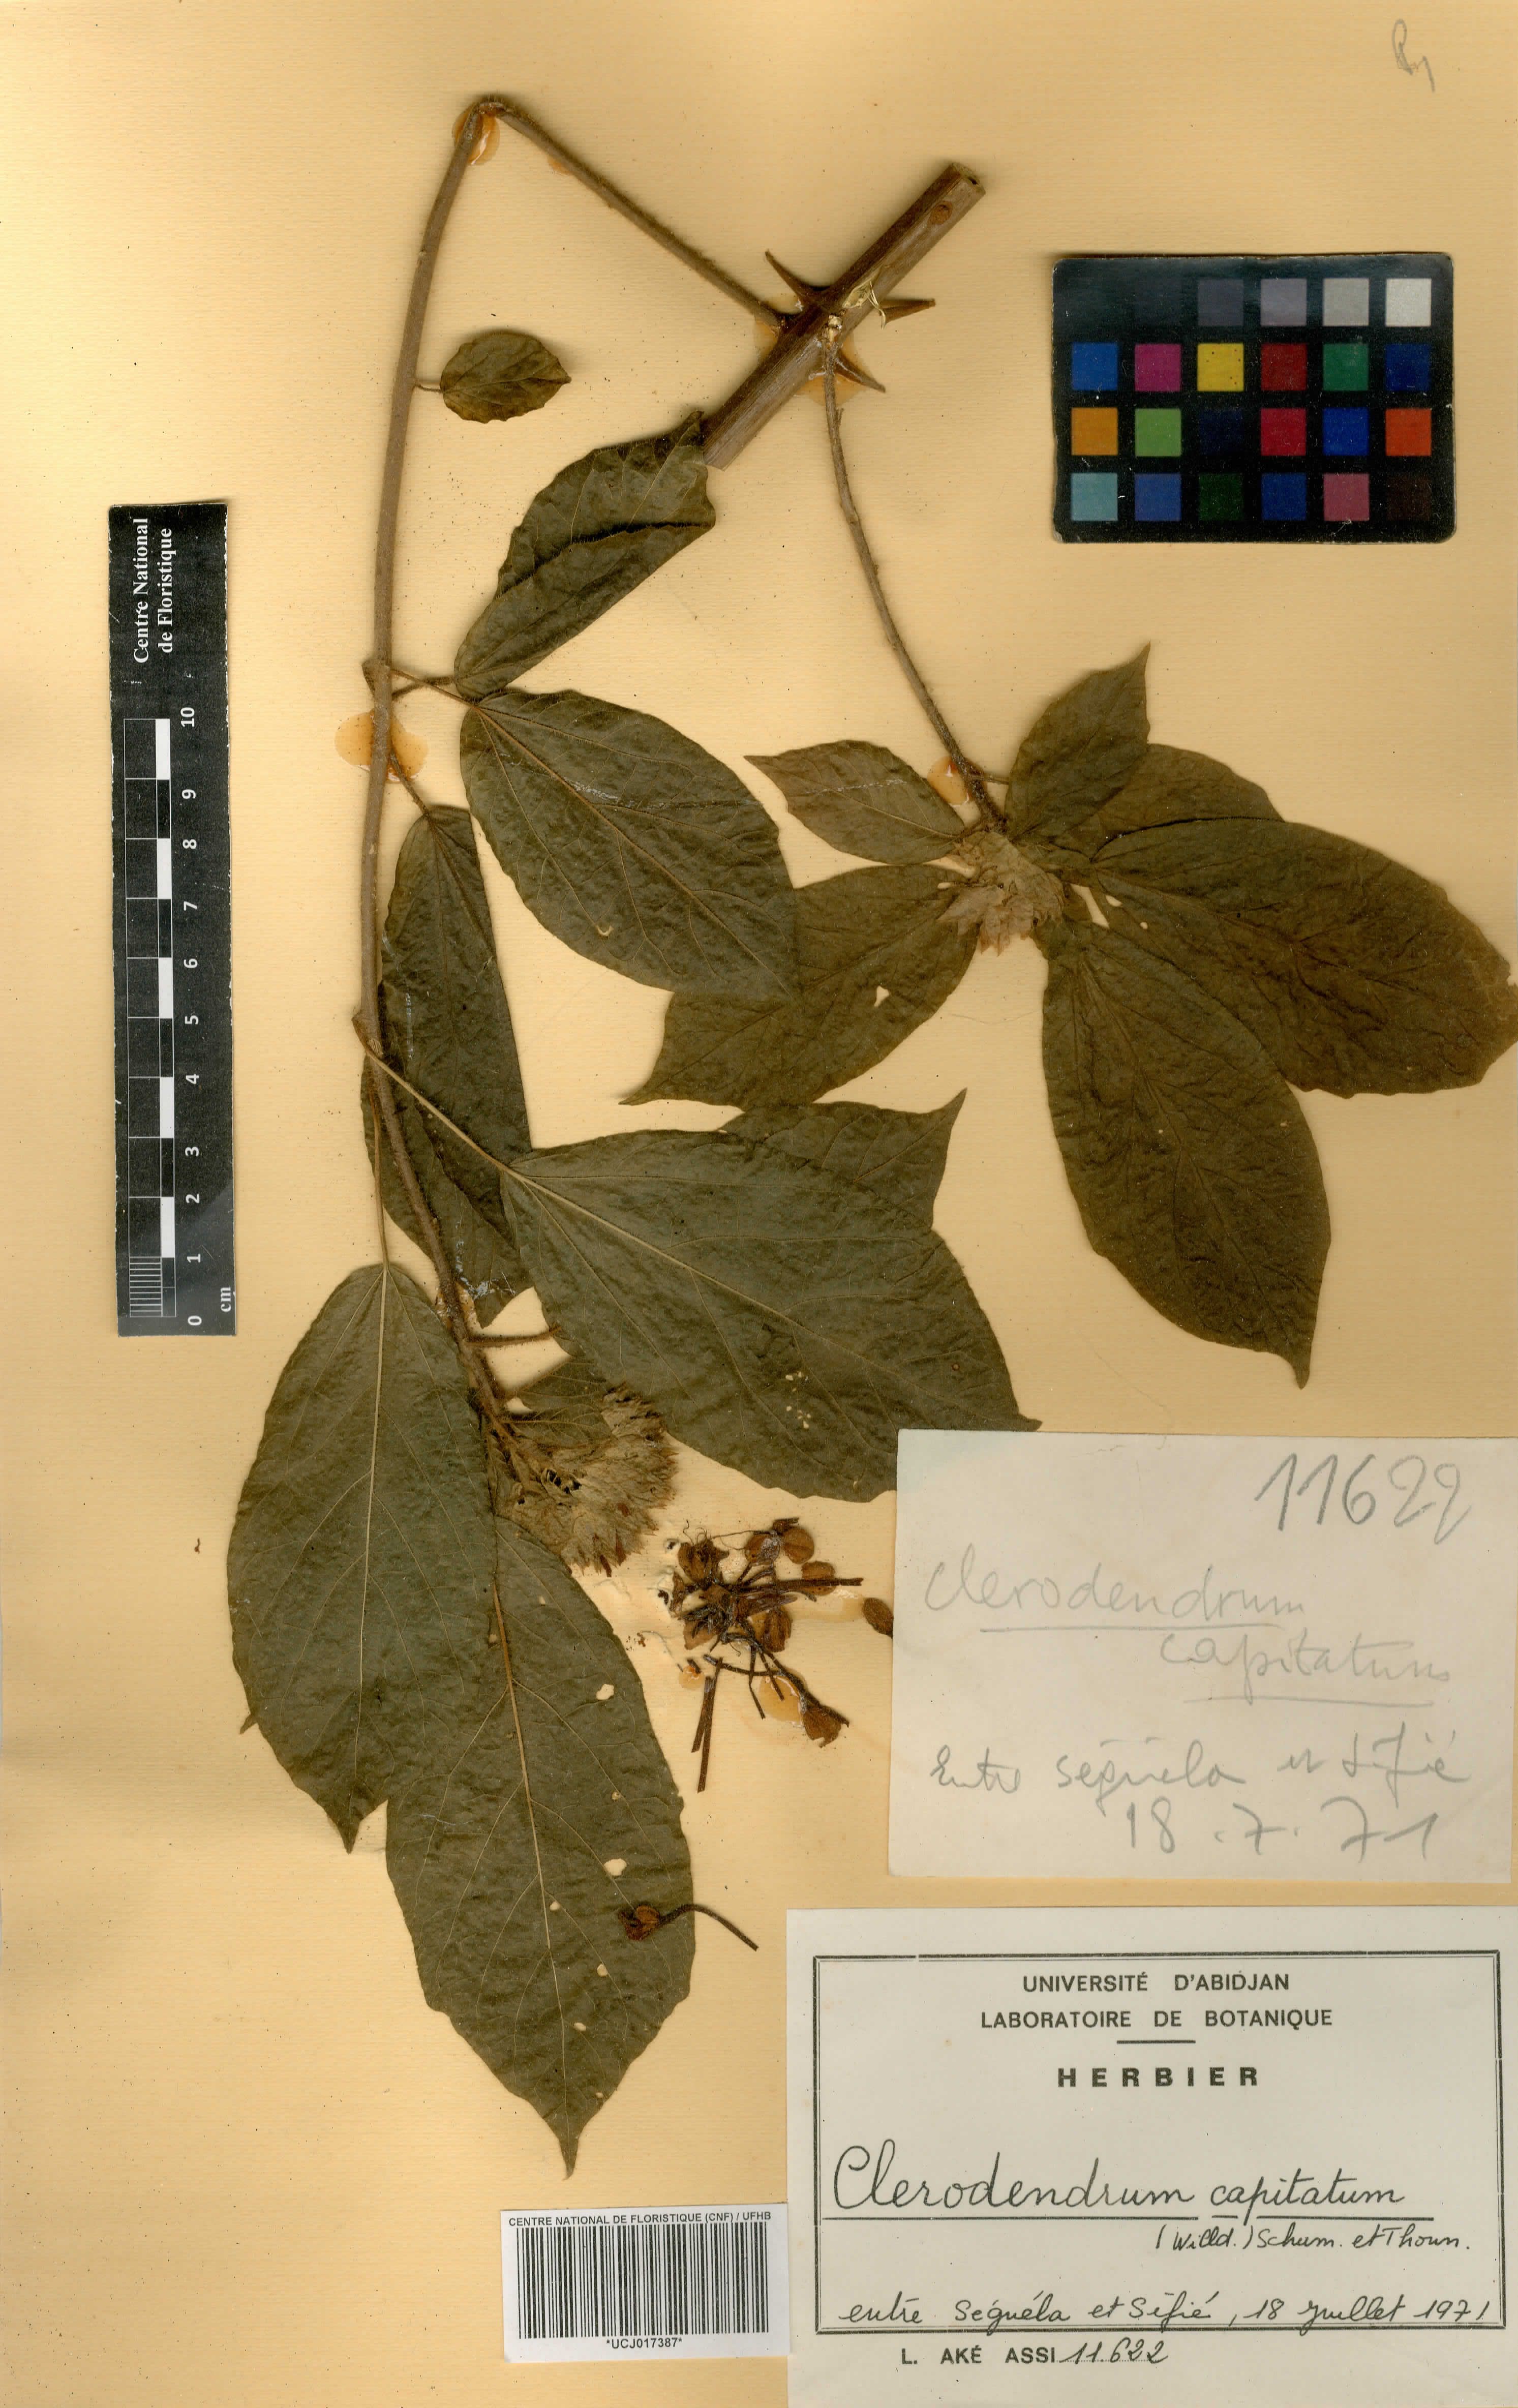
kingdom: Plantae
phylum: Tracheophyta
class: Magnoliopsida
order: Lamiales
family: Lamiaceae
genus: Clerodendrum
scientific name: Clerodendrum capitatum
